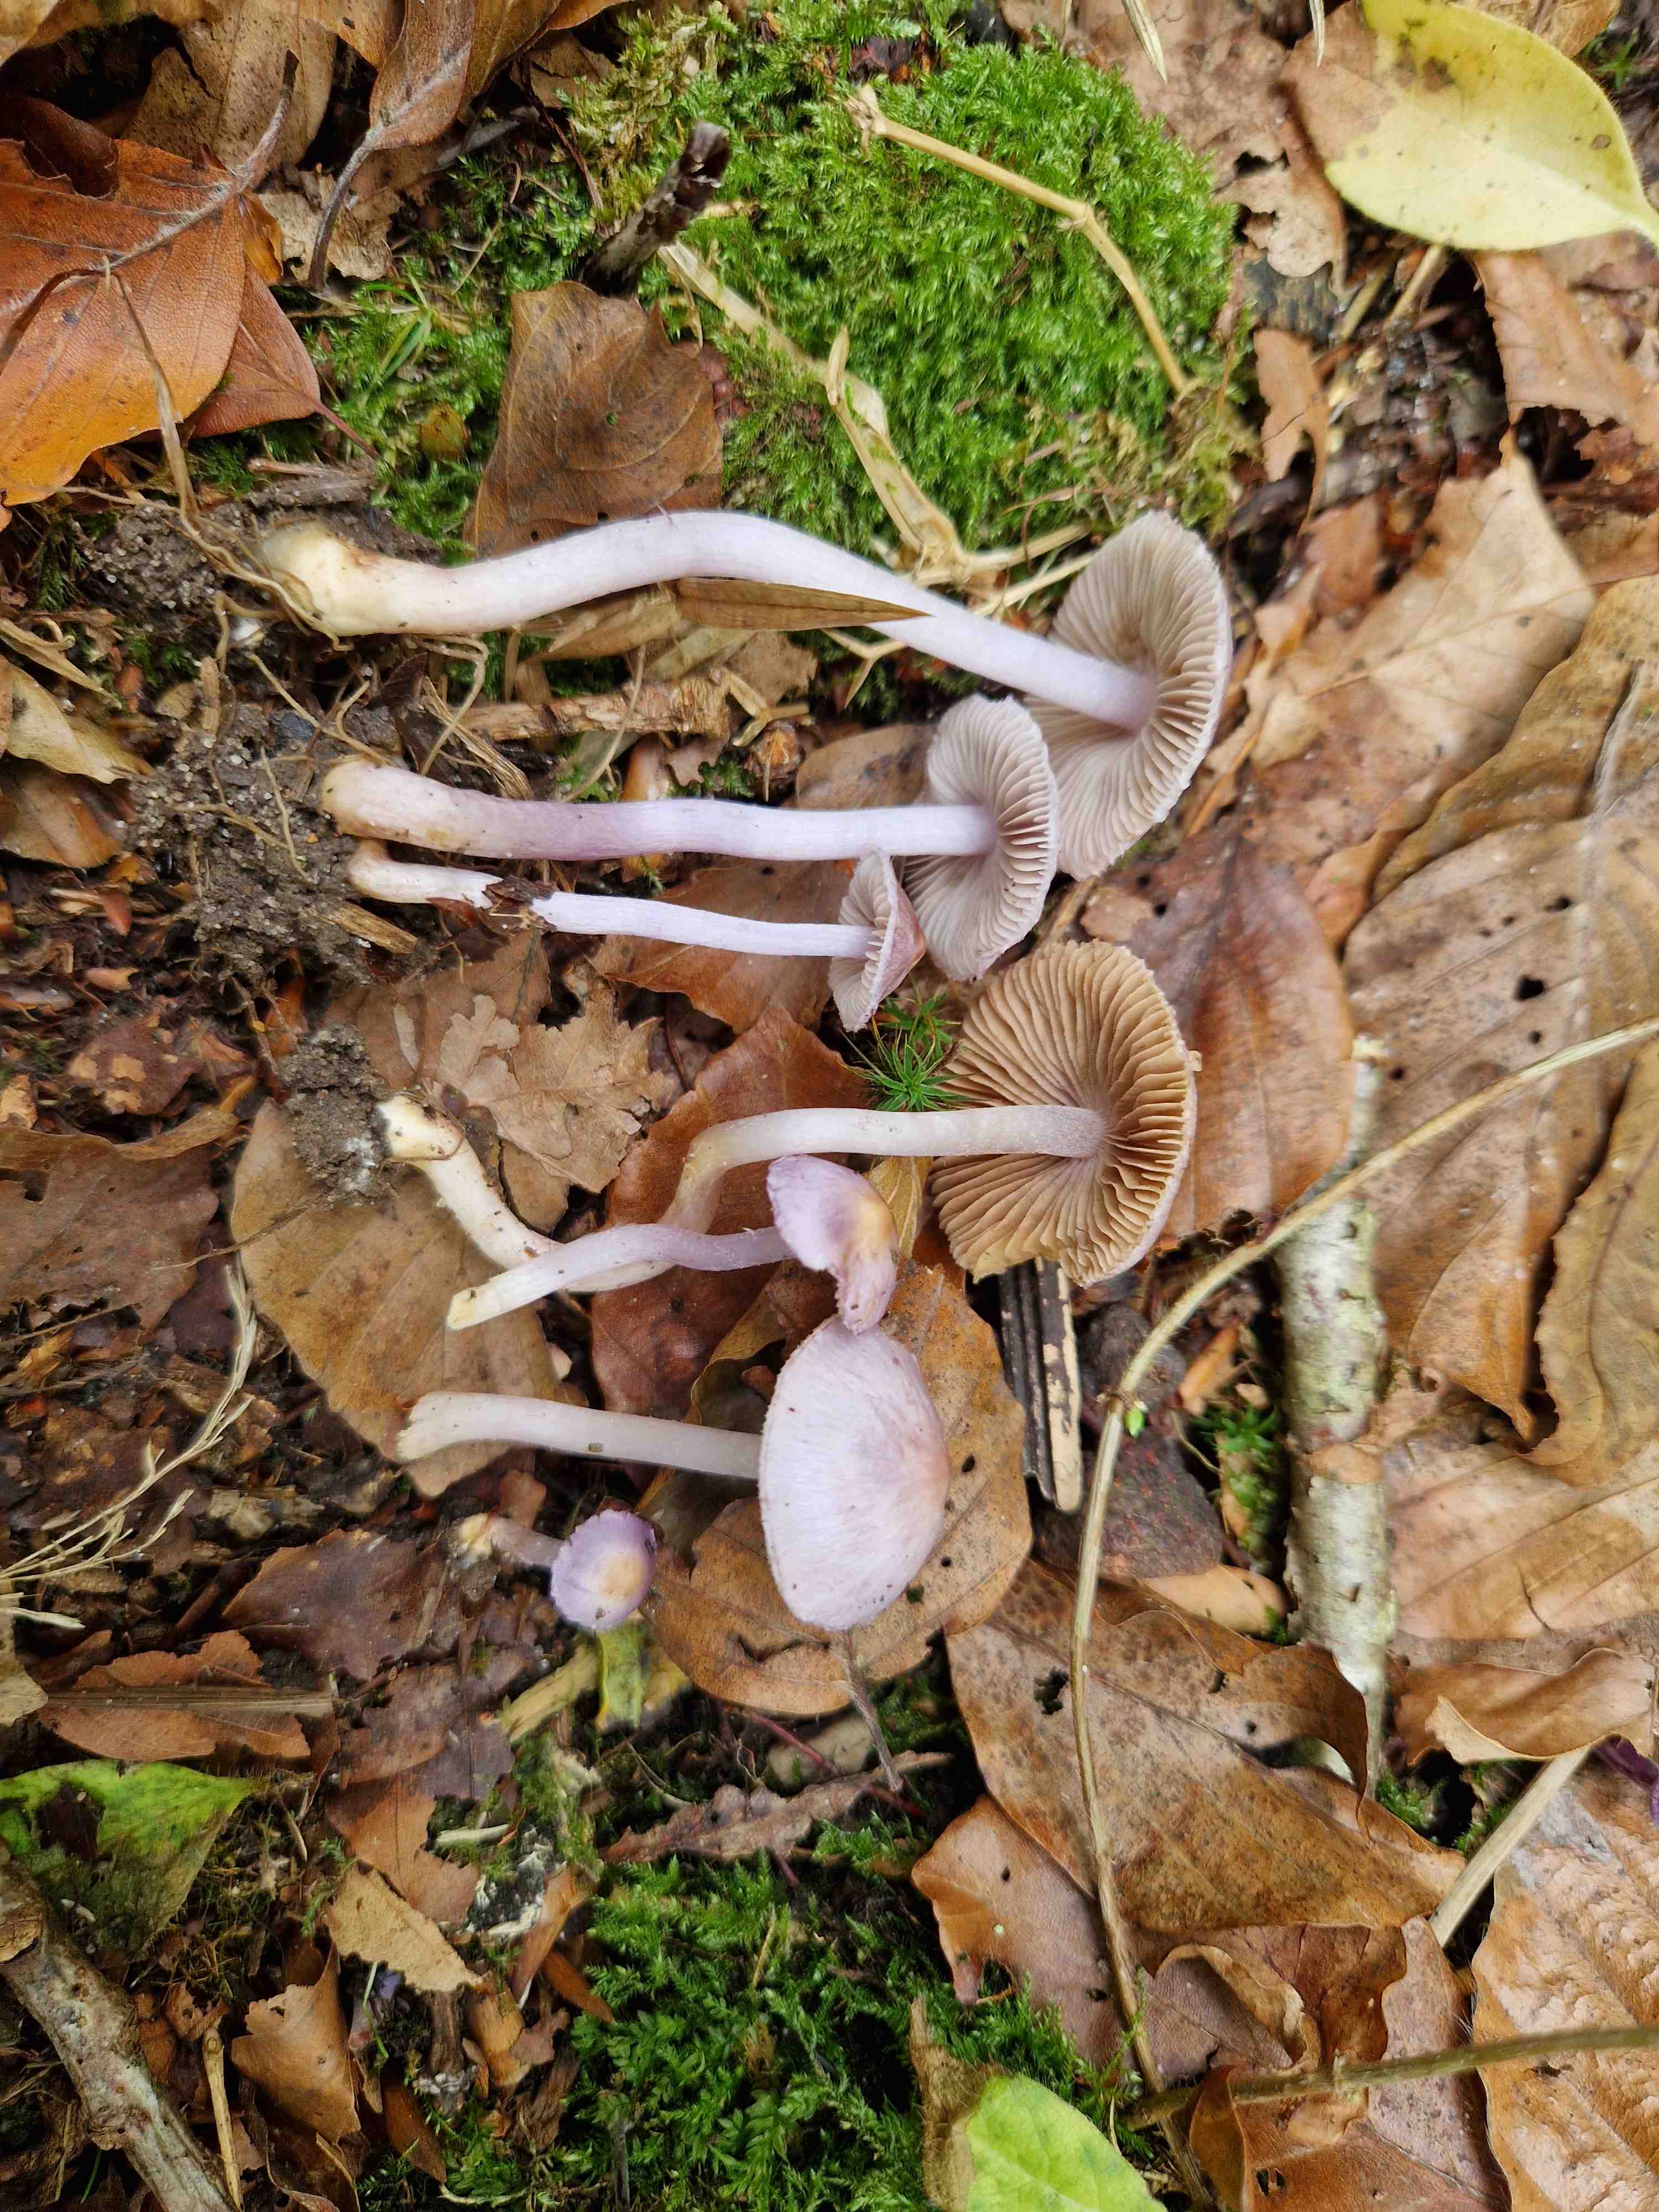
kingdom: Fungi
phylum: Basidiomycota
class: Agaricomycetes
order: Agaricales
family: Inocybaceae
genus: Inocybe
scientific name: Inocybe aphroditeana
